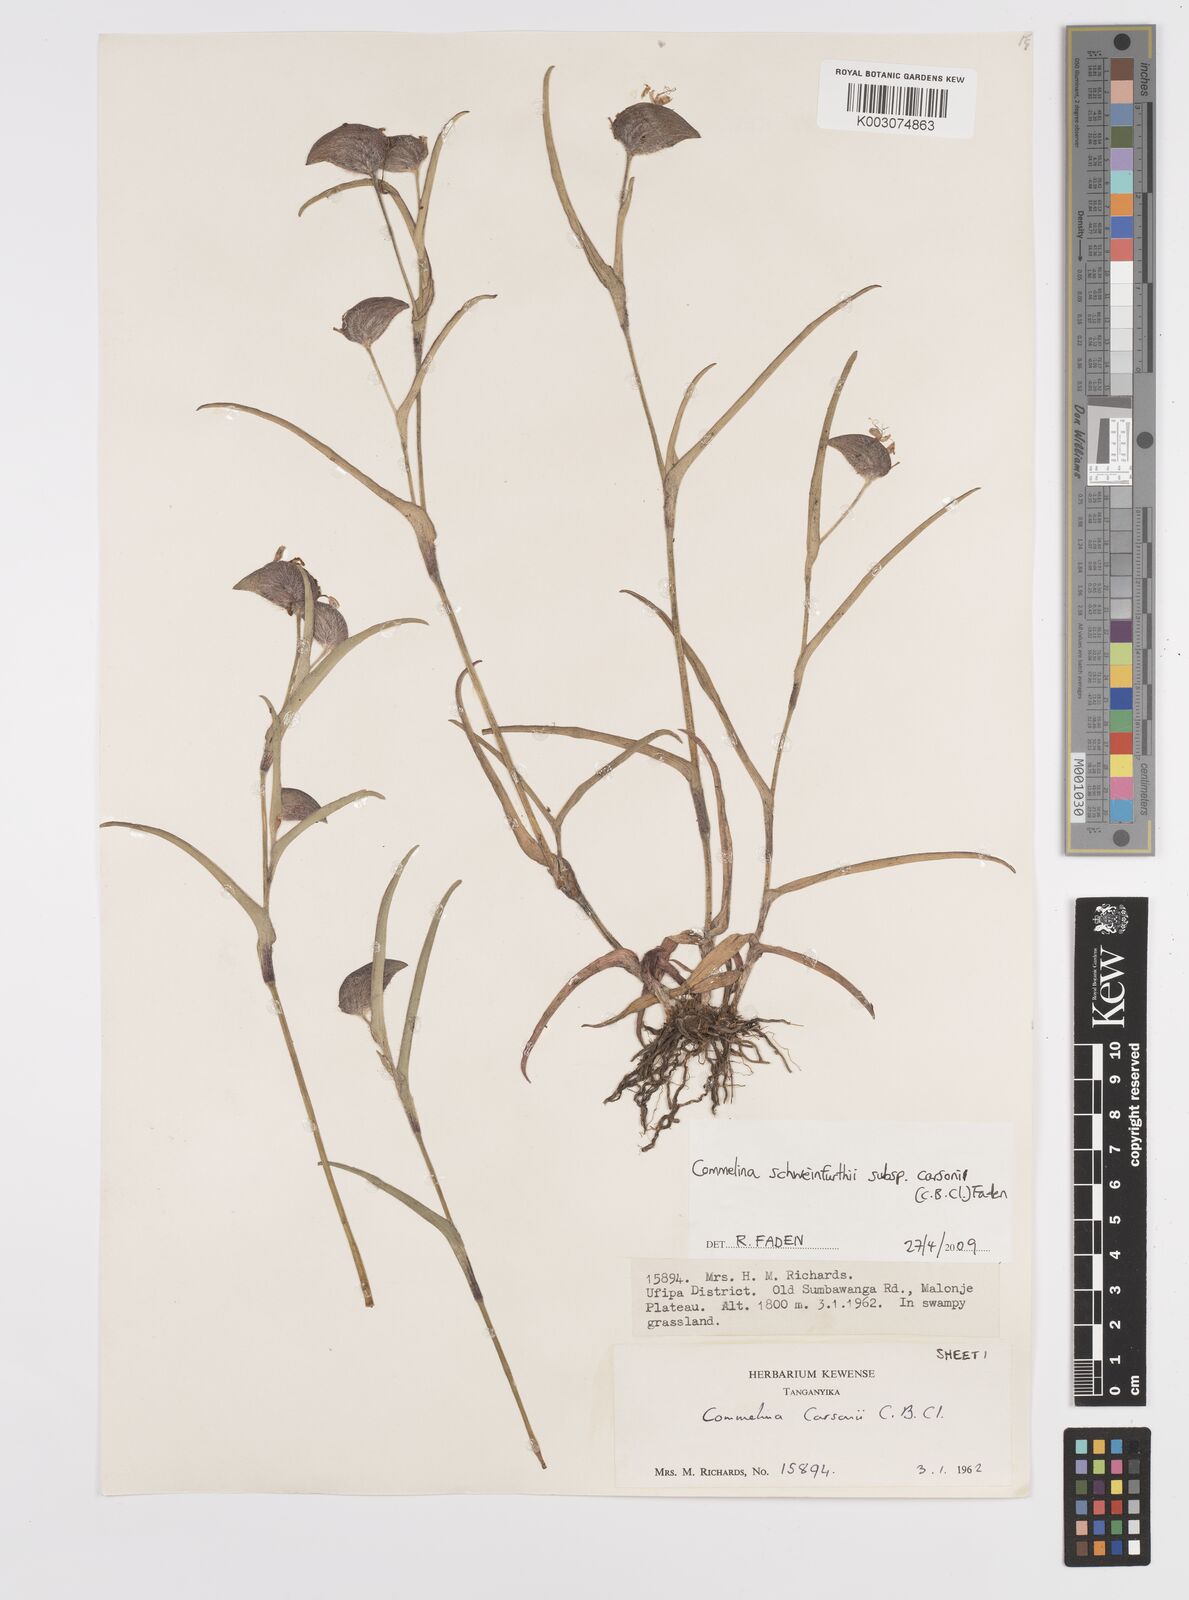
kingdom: Plantae
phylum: Tracheophyta
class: Liliopsida
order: Commelinales
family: Commelinaceae
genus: Commelina
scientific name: Commelina schweinfurthii
